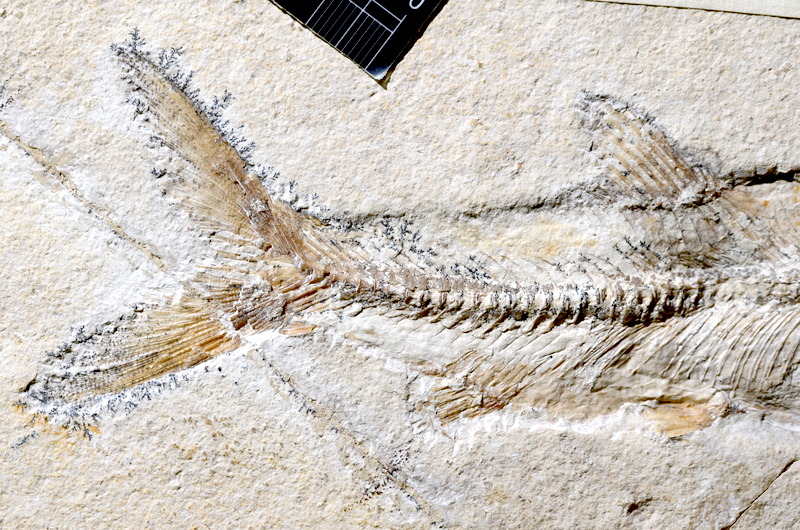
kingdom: Animalia
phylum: Chordata
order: Elopiformes
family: Anaethalionidae
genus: Anaethalion
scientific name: Anaethalion knorri
